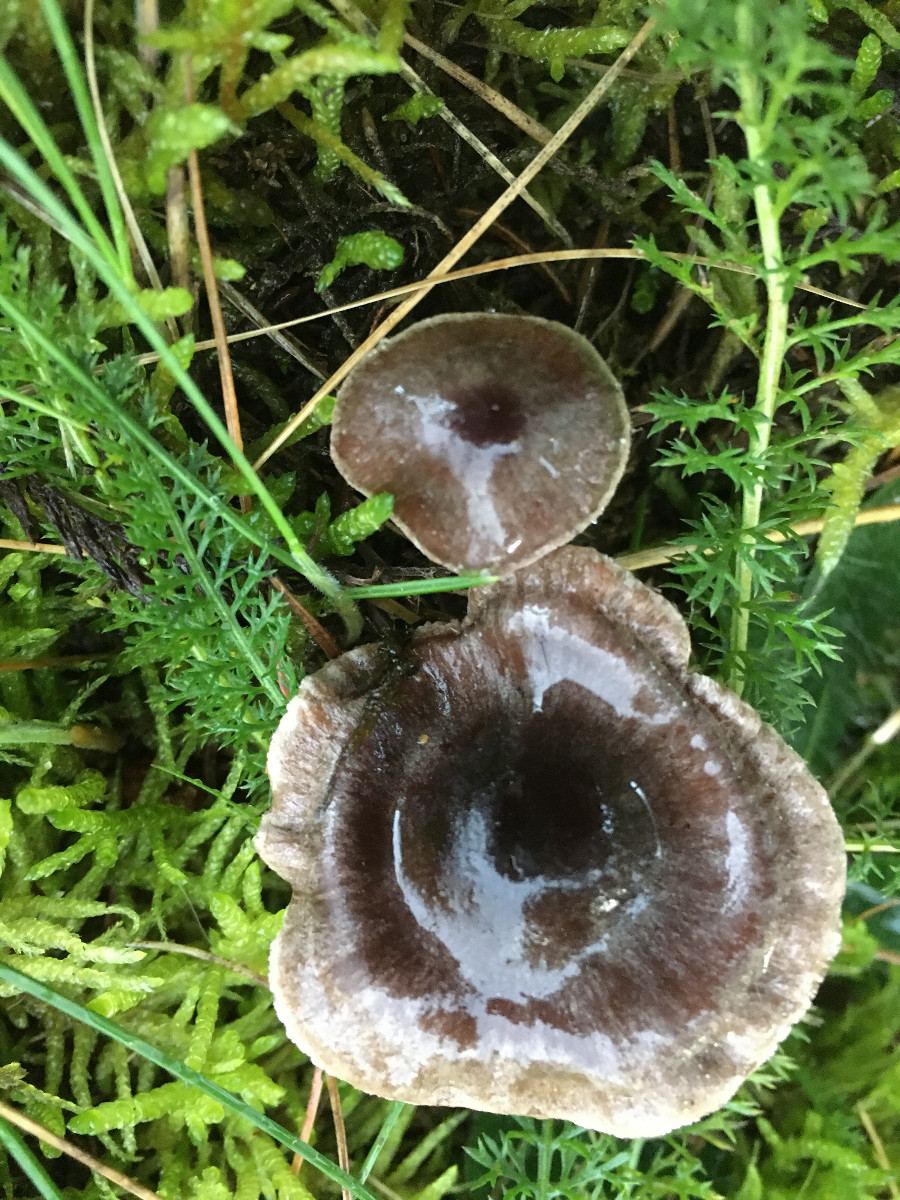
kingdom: Fungi
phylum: Basidiomycota
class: Agaricomycetes
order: Agaricales
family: Cortinariaceae
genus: Cortinarius
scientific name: Cortinarius
